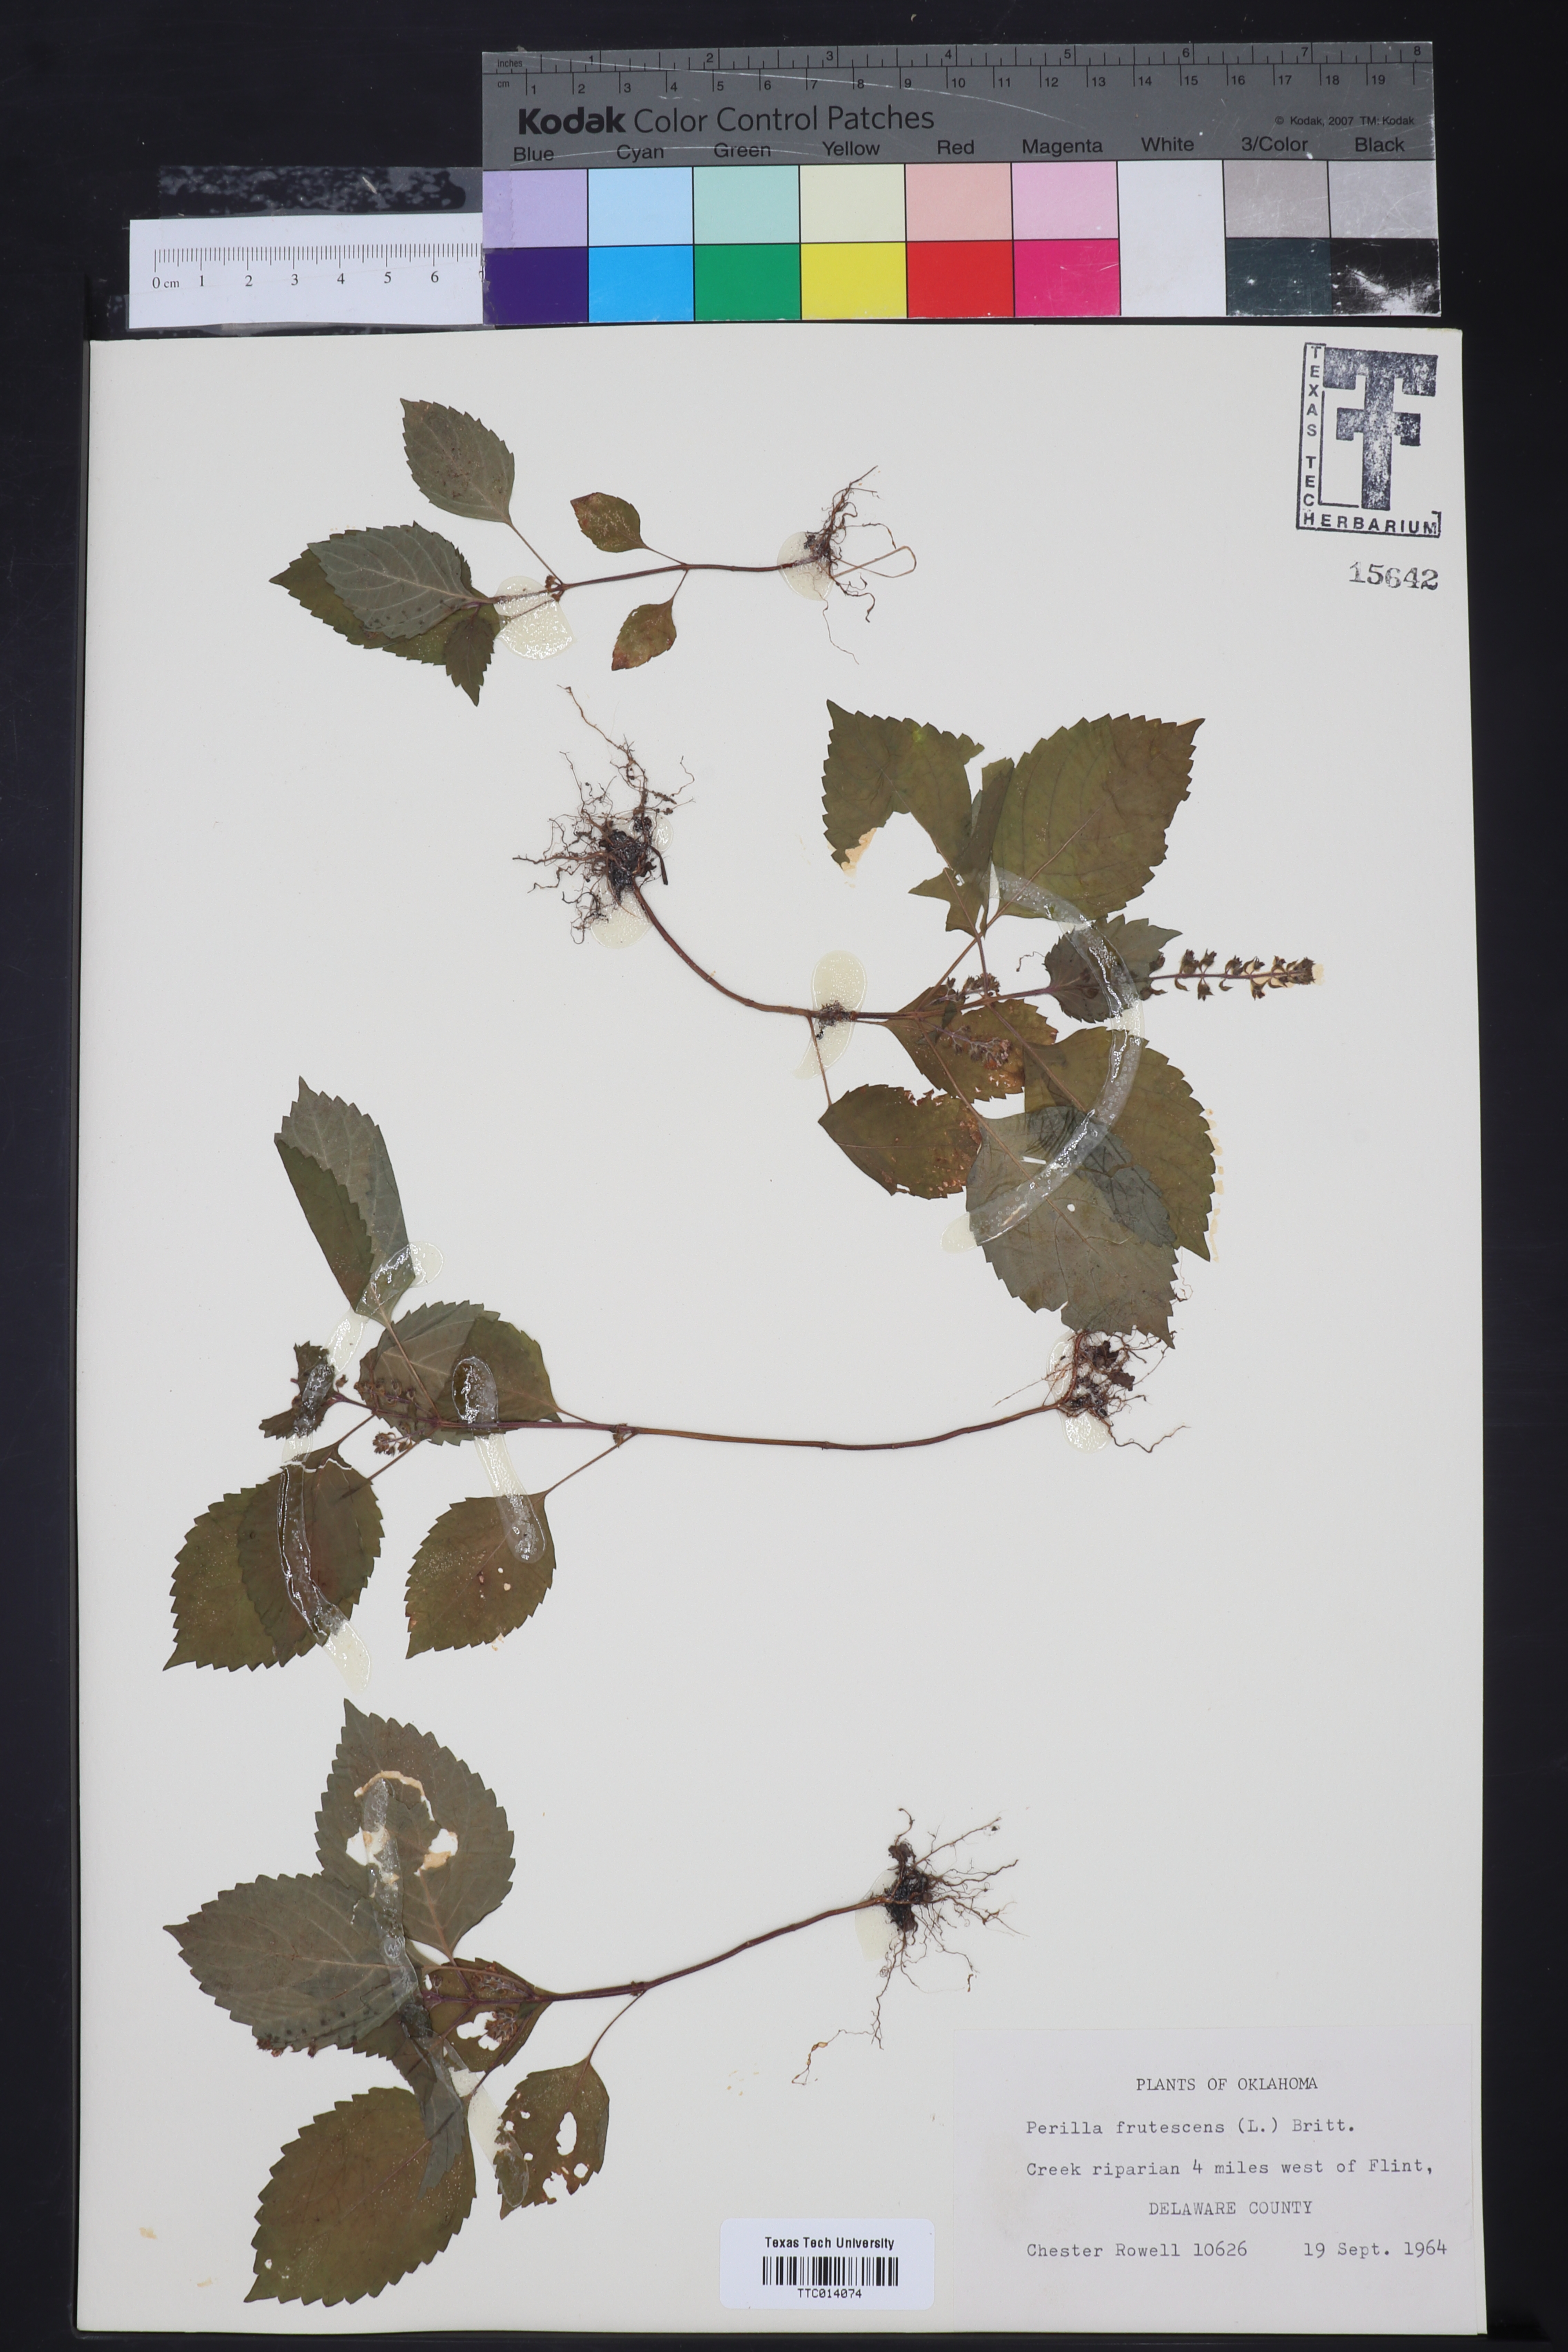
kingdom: Plantae
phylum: Tracheophyta
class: Magnoliopsida
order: Lamiales
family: Lamiaceae
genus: Perilla
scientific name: Perilla frutescens
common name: Perilla
